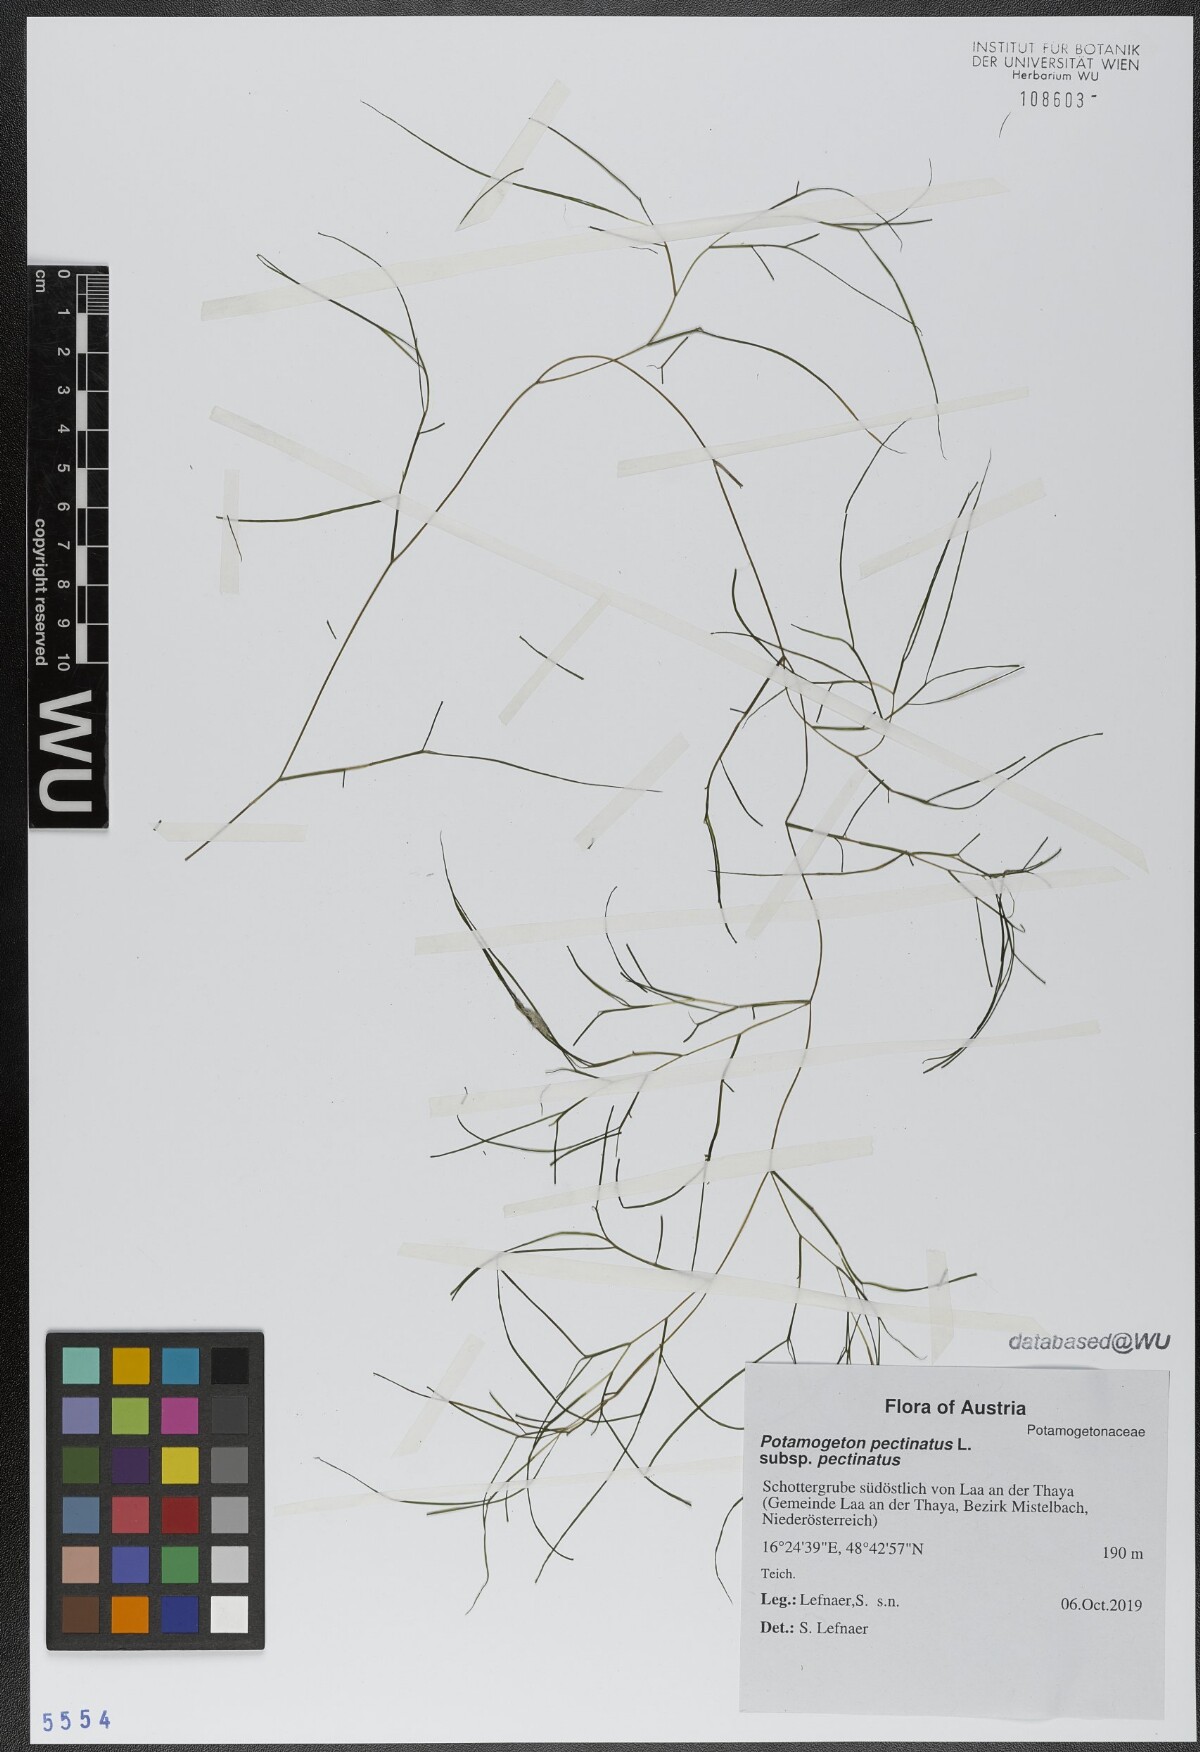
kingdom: Plantae
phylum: Tracheophyta
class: Liliopsida
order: Alismatales
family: Potamogetonaceae
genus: Stuckenia
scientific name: Stuckenia pectinata
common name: Sago pondweed
